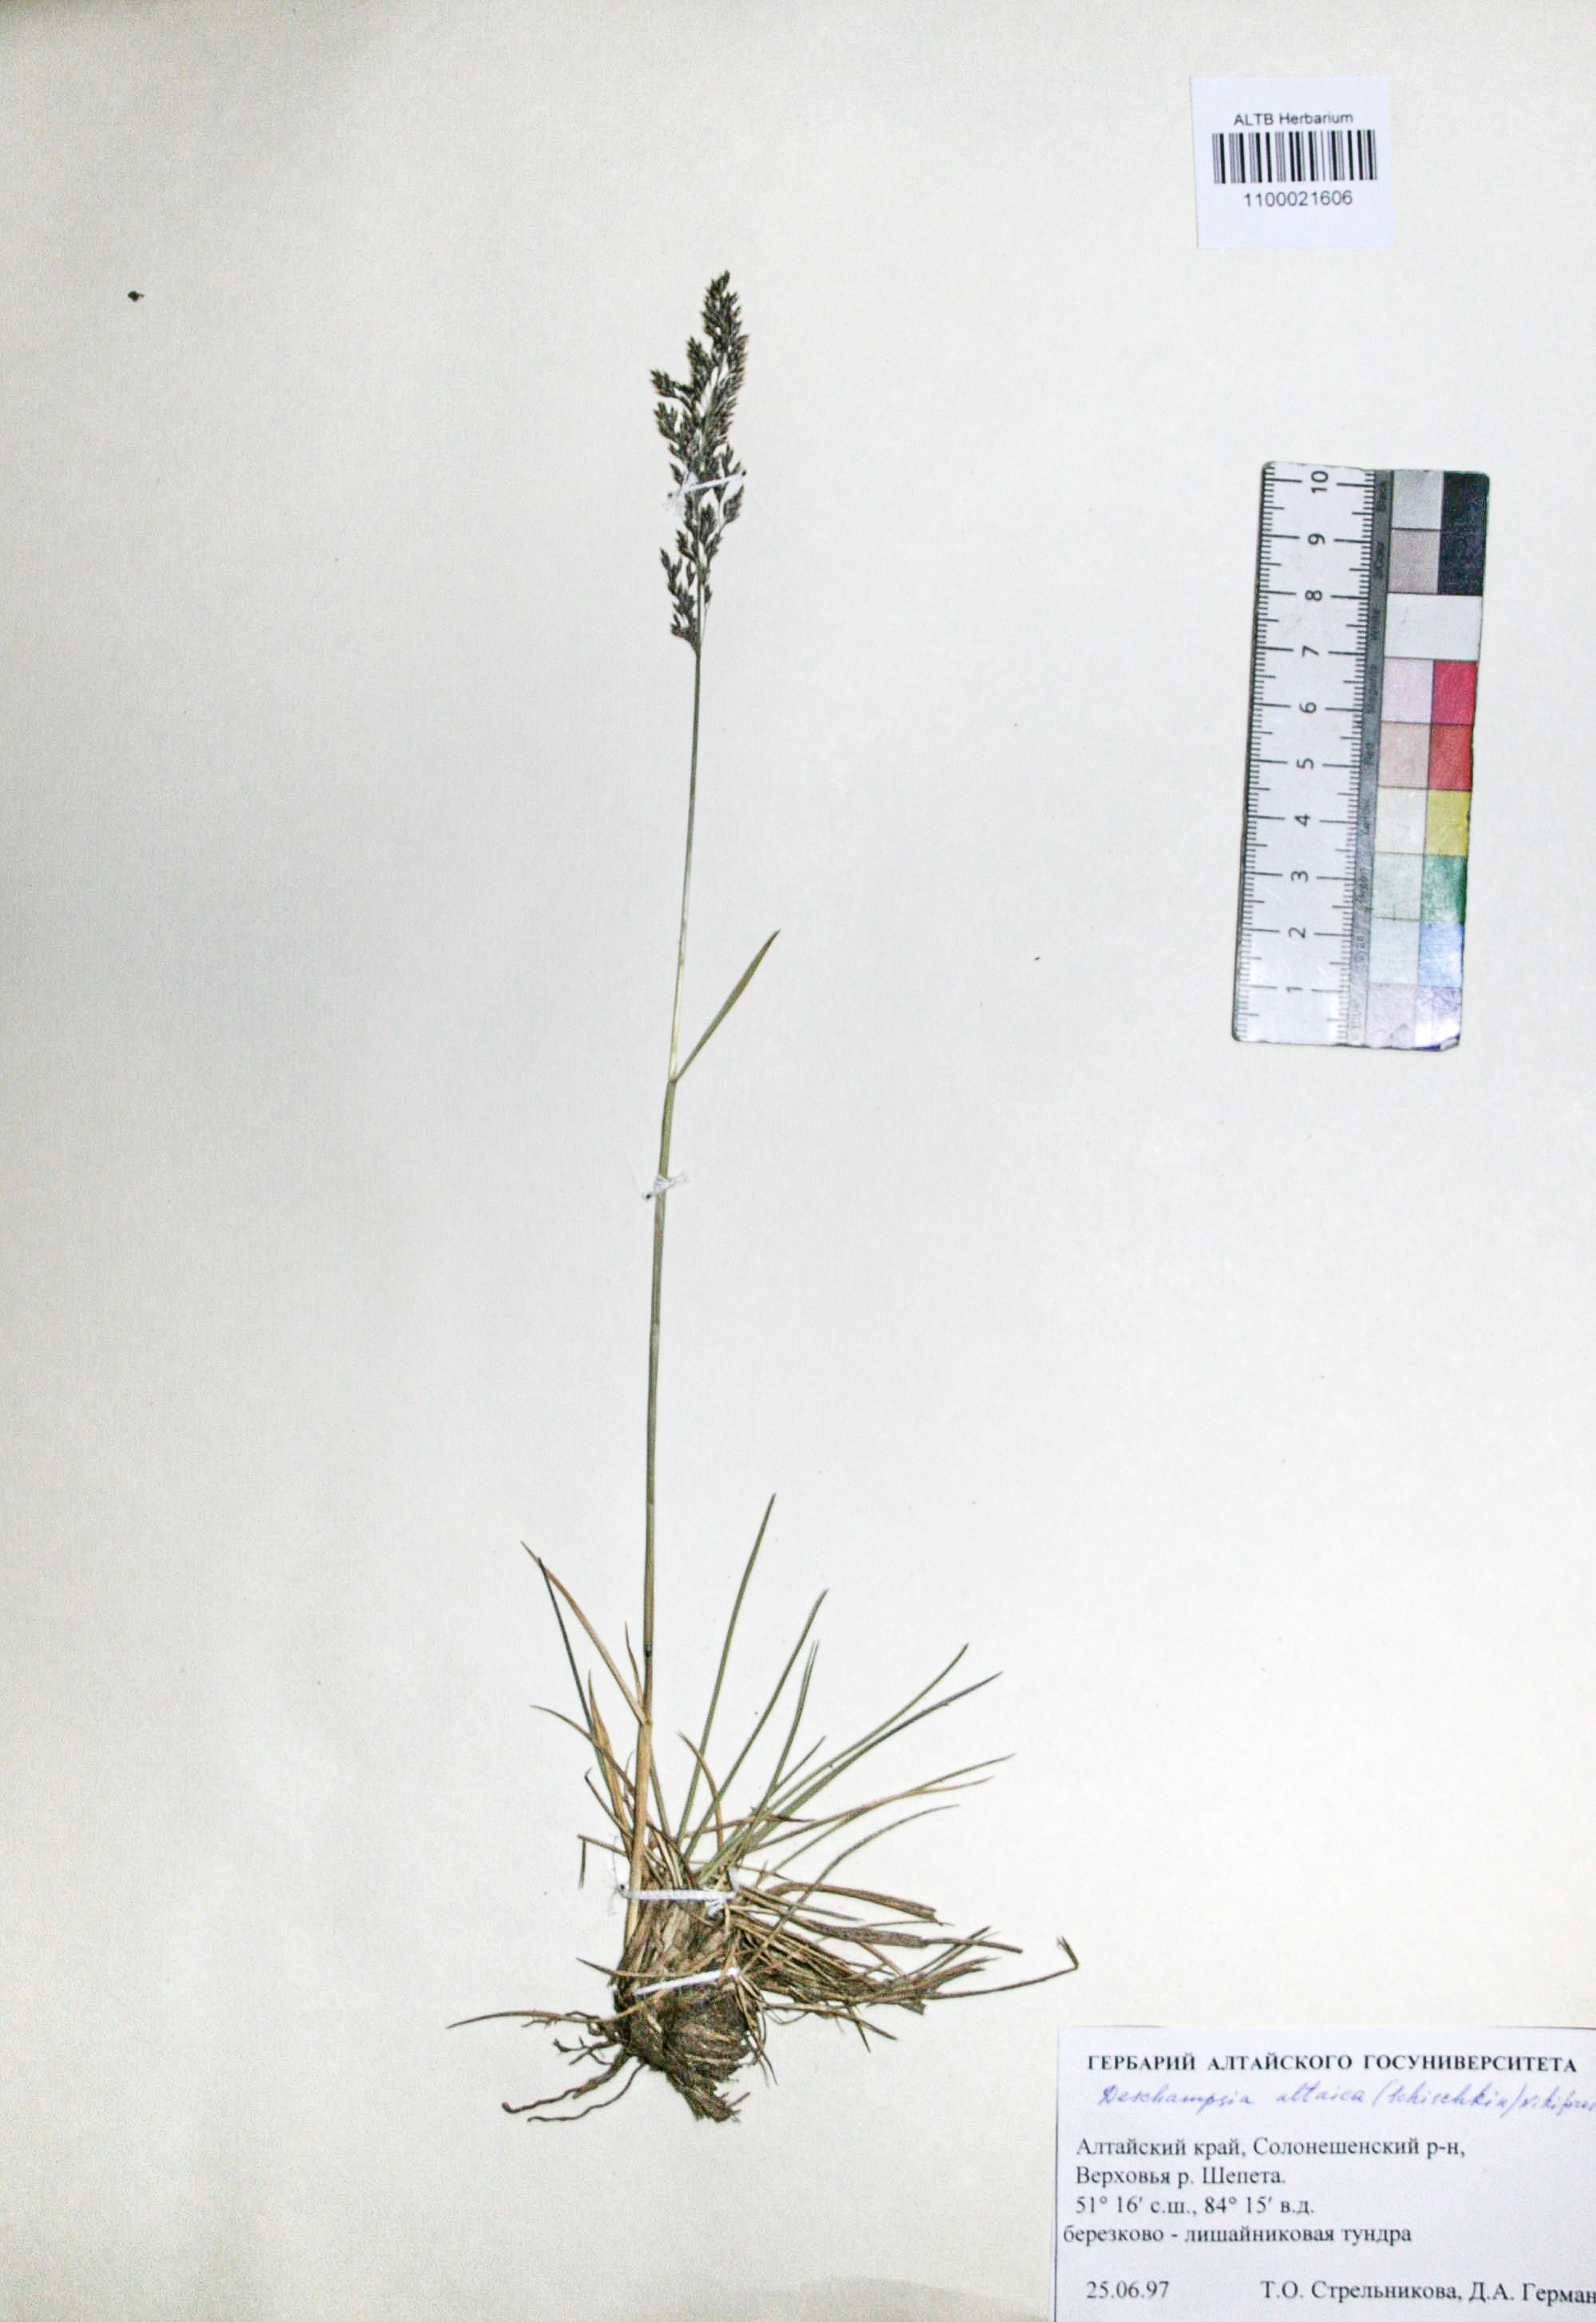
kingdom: Plantae
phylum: Tracheophyta
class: Liliopsida
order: Poales
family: Poaceae
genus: Deschampsia
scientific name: Deschampsia cespitosa
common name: Tufted hair-grass
